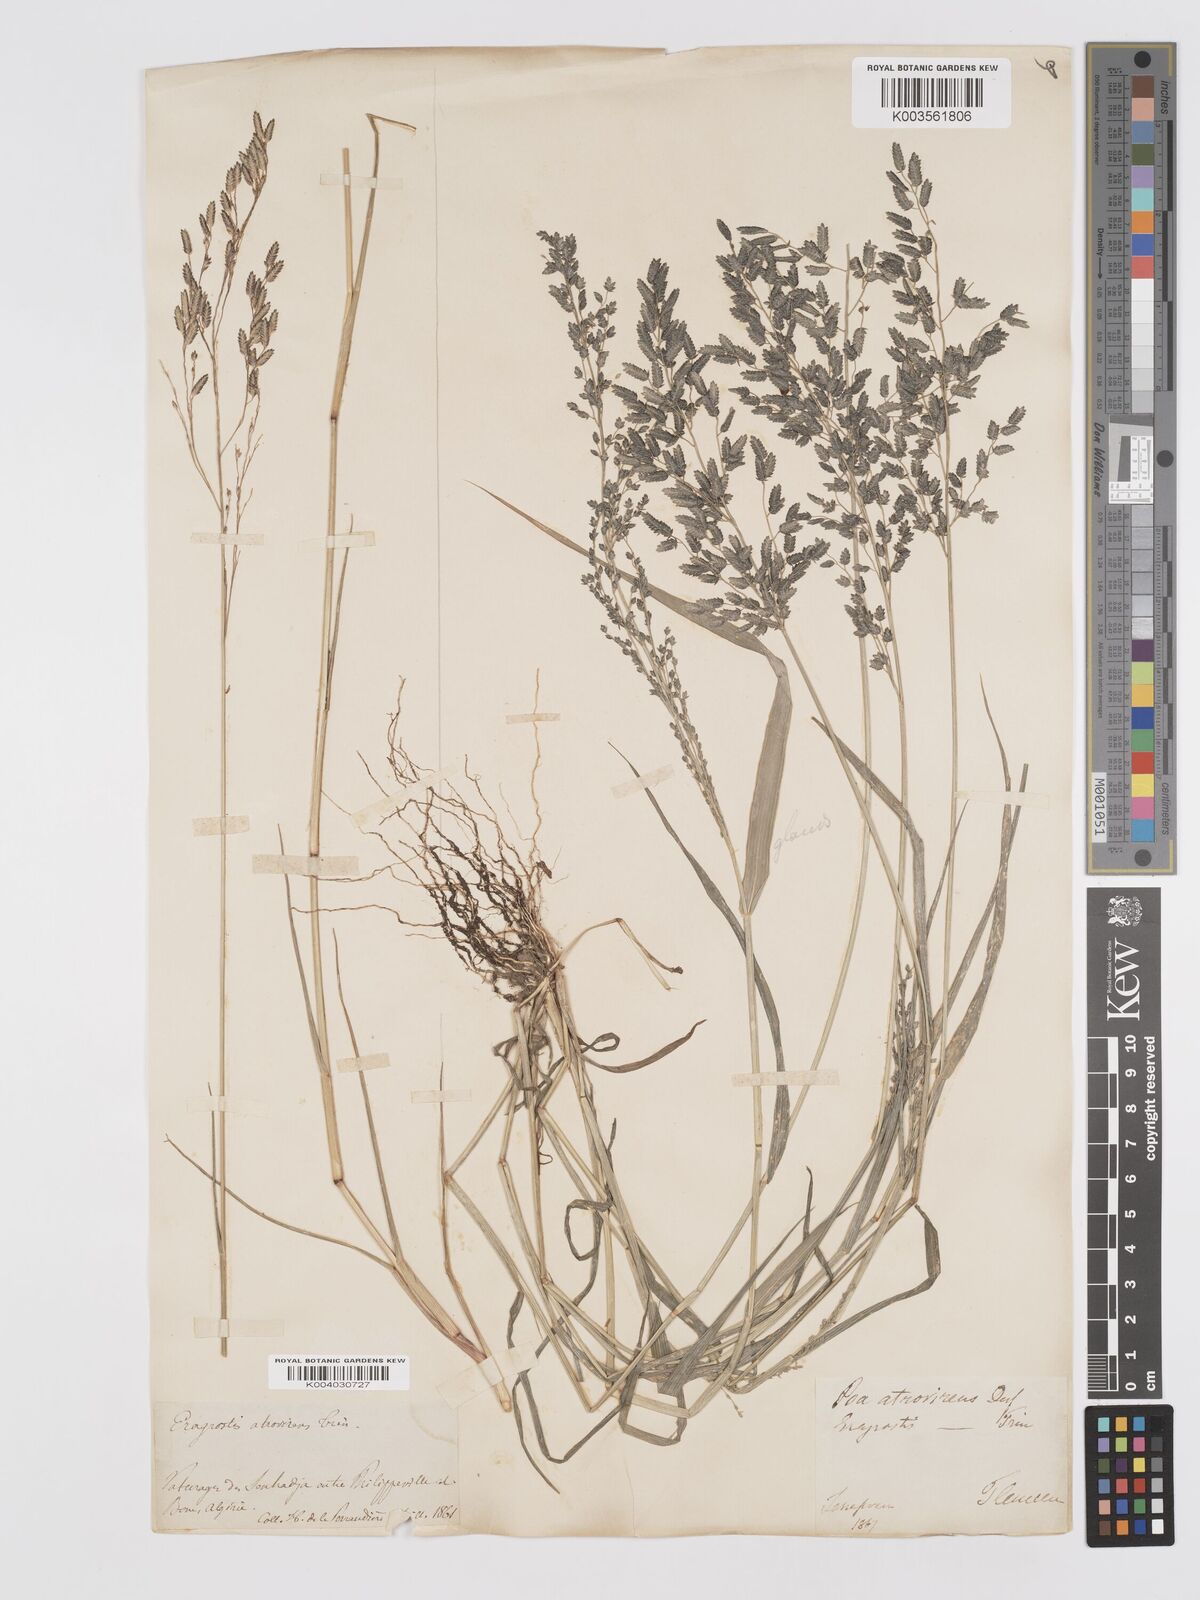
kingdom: Plantae
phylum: Tracheophyta
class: Liliopsida
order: Poales
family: Poaceae
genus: Eragrostis
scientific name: Eragrostis cilianensis
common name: Stinkgrass
